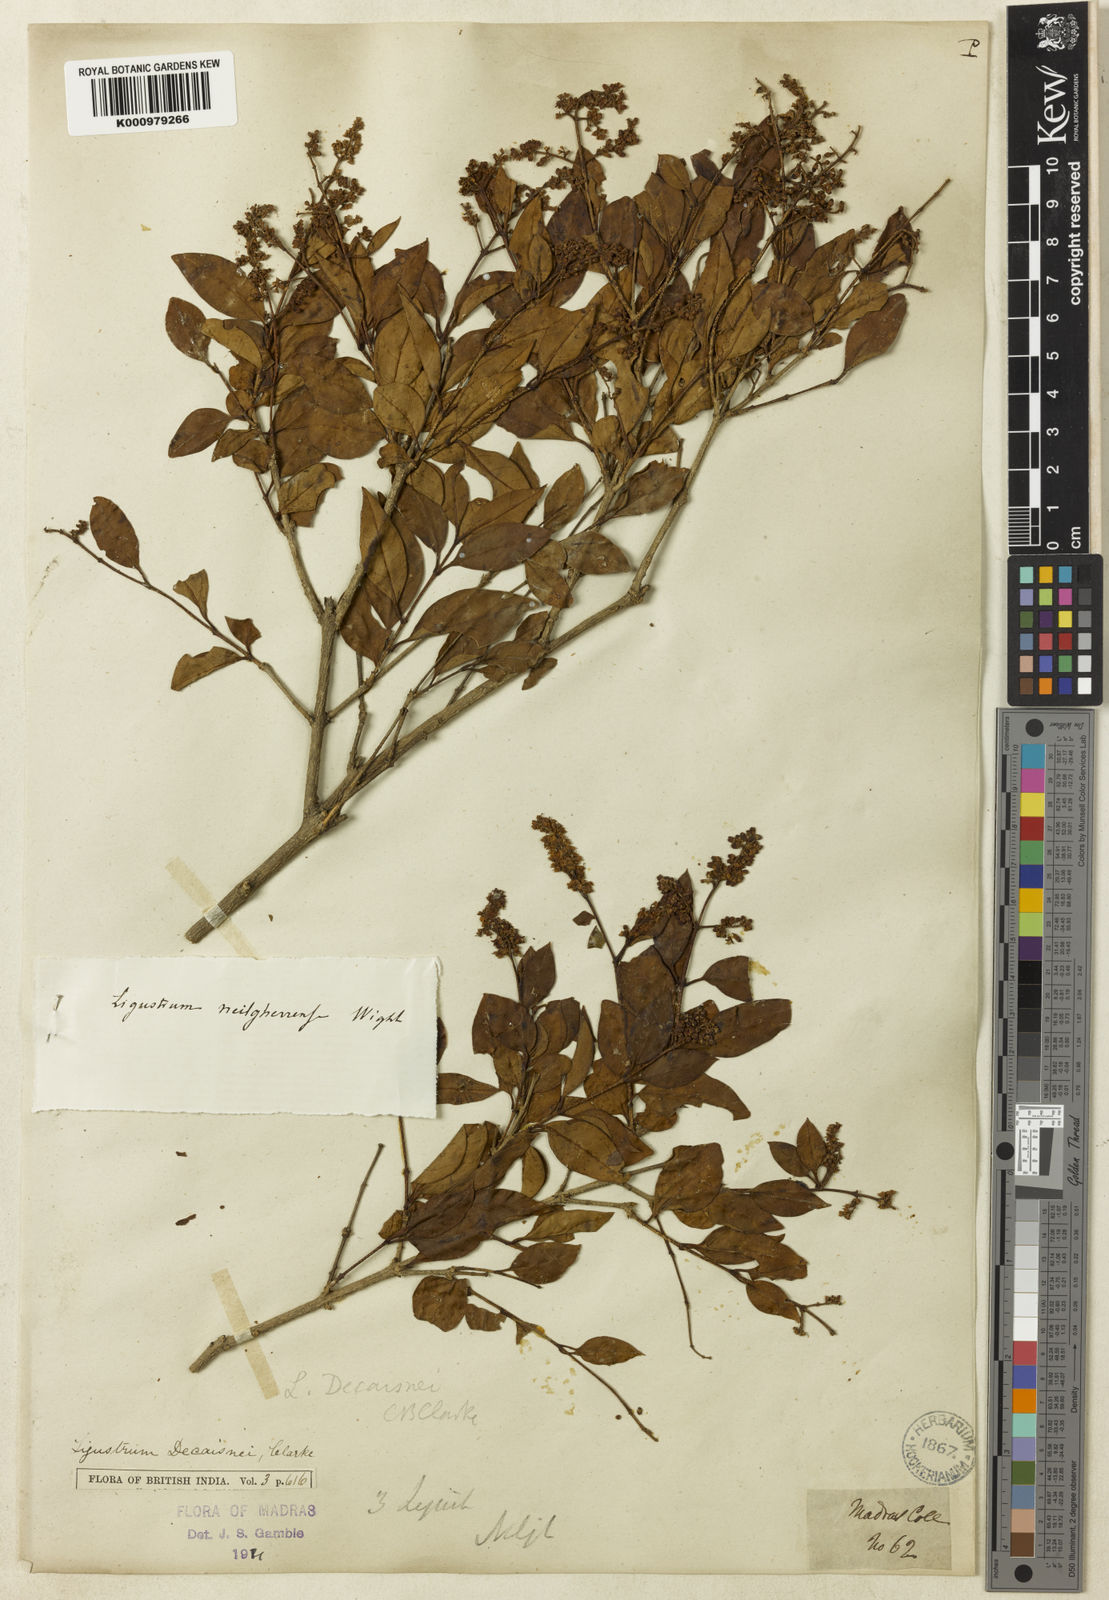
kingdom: Plantae
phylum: Tracheophyta
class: Magnoliopsida
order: Lamiales
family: Oleaceae
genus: Ligustrum
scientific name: Ligustrum robustum
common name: Tree privet
